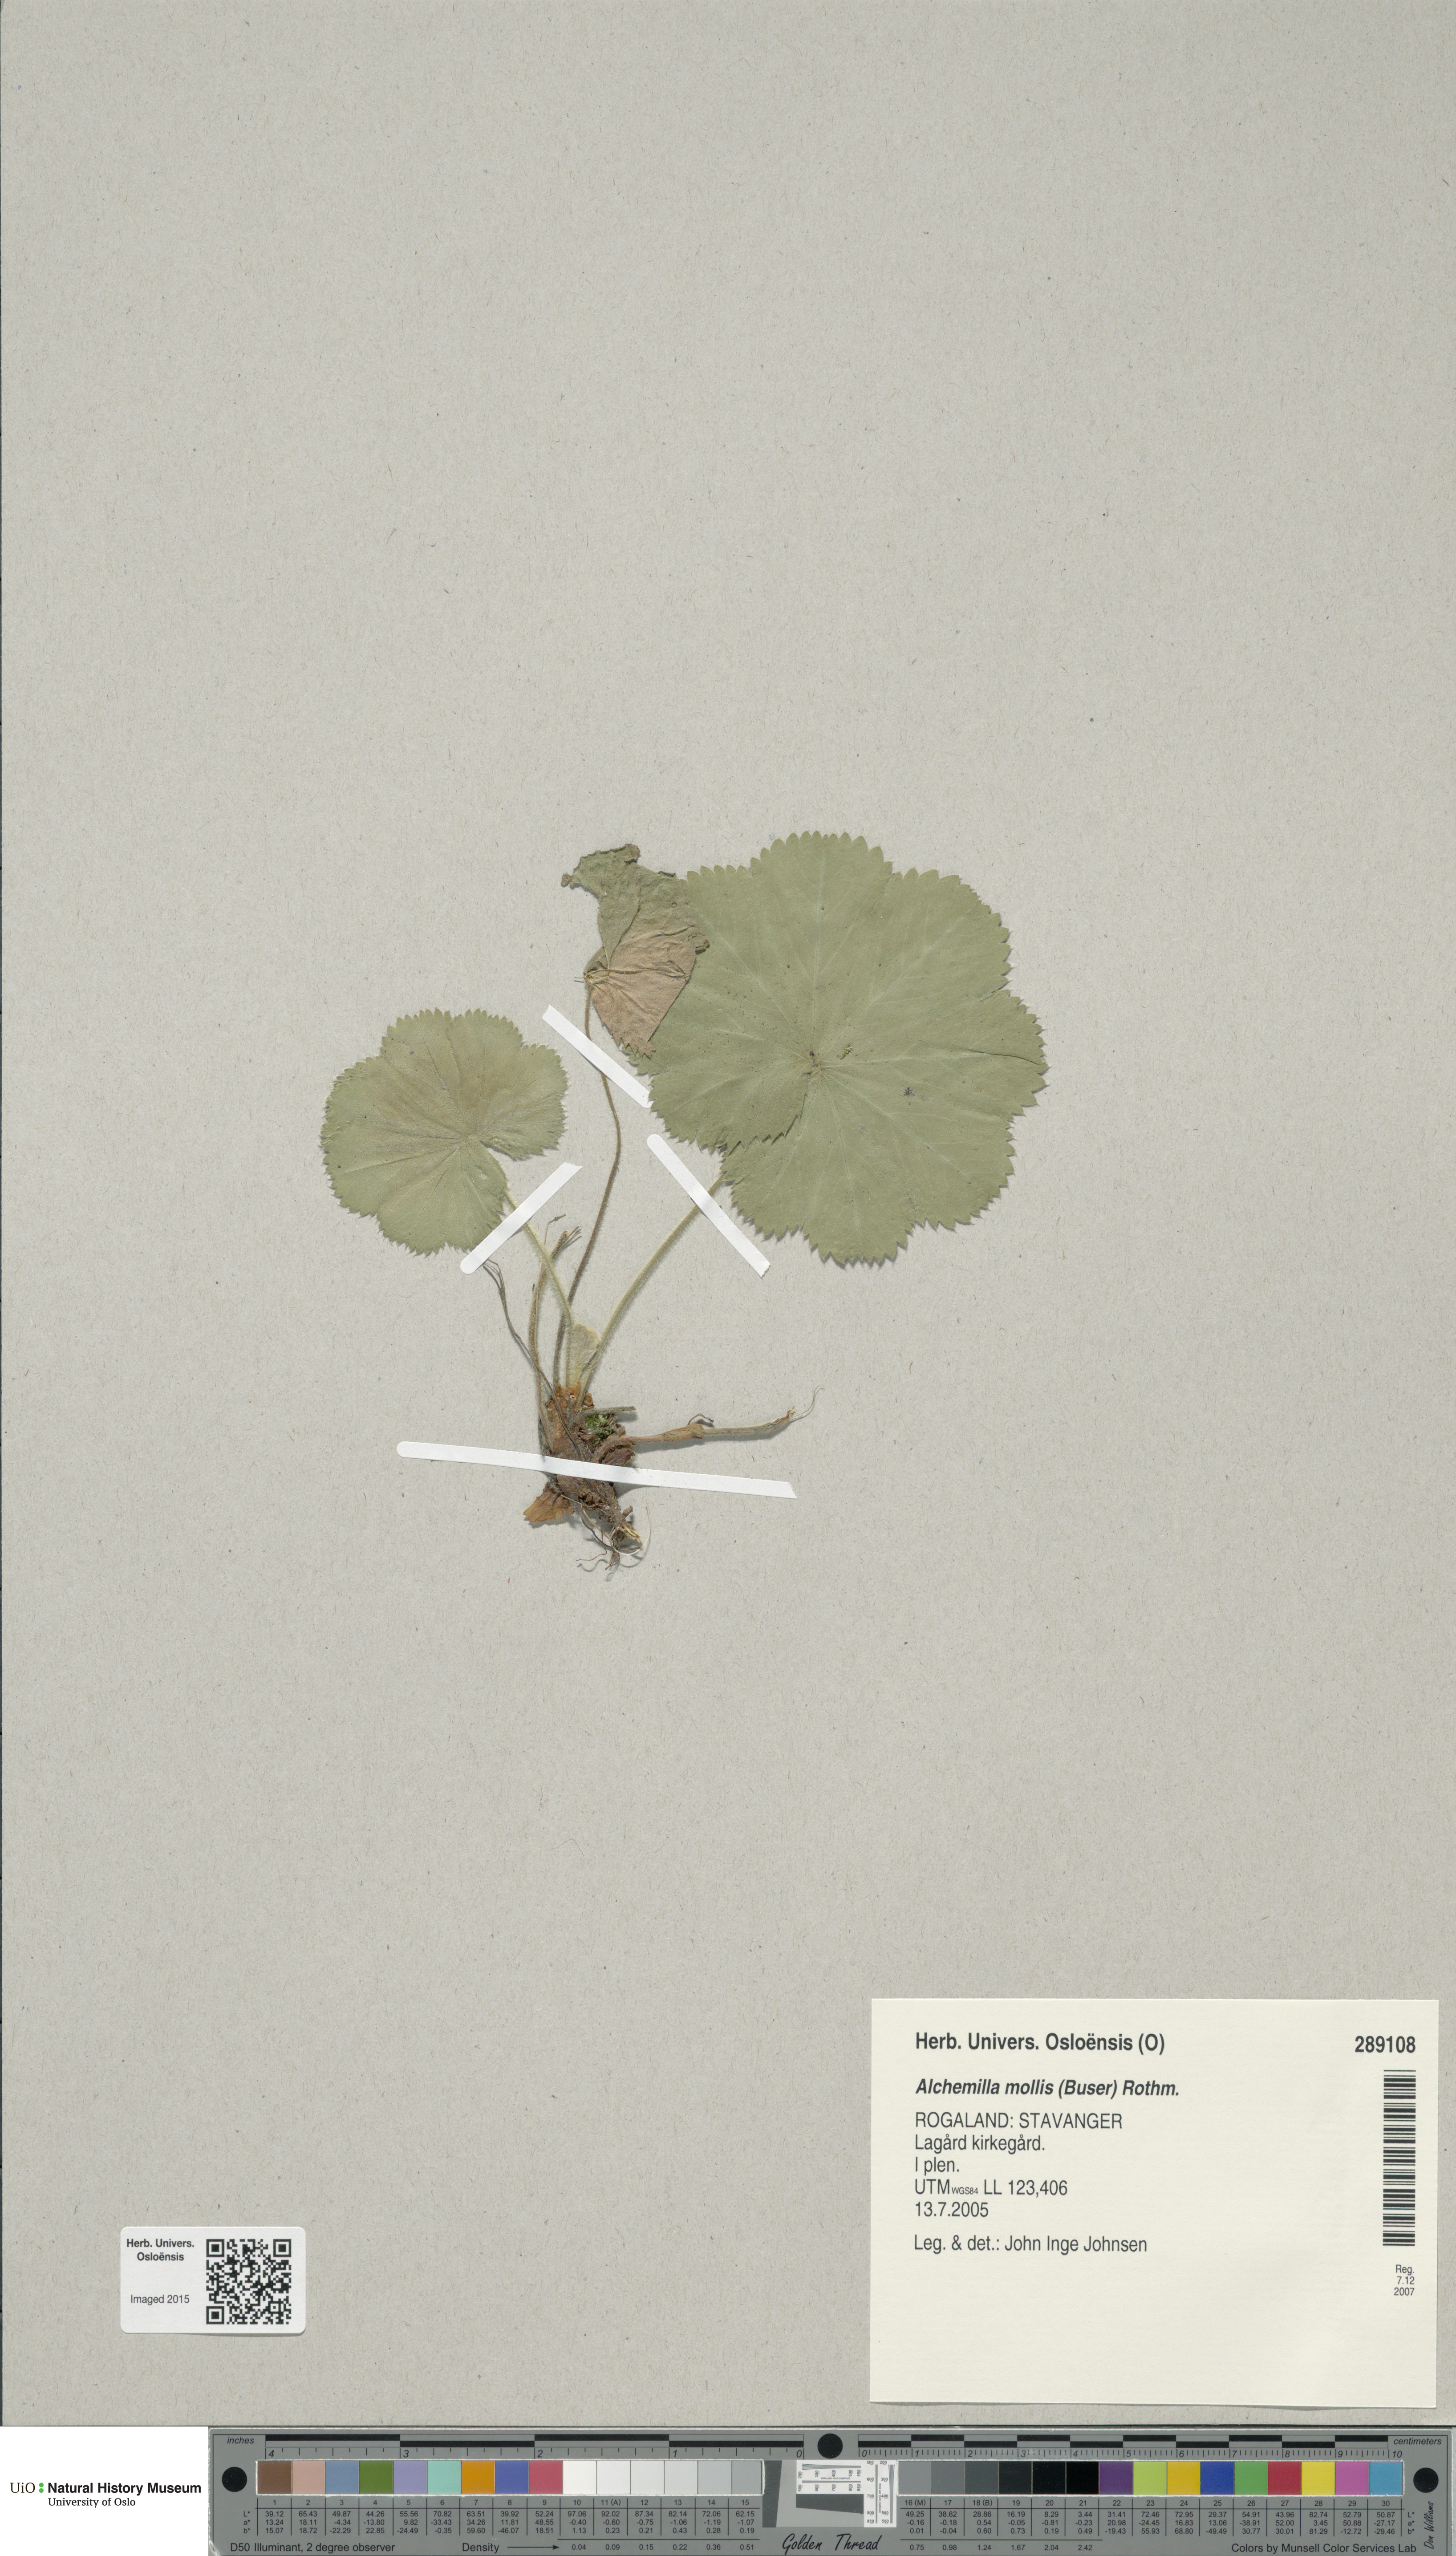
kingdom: Plantae
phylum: Tracheophyta
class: Magnoliopsida
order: Rosales
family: Rosaceae
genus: Alchemilla
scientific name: Alchemilla mollis
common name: Lady's-mantle
